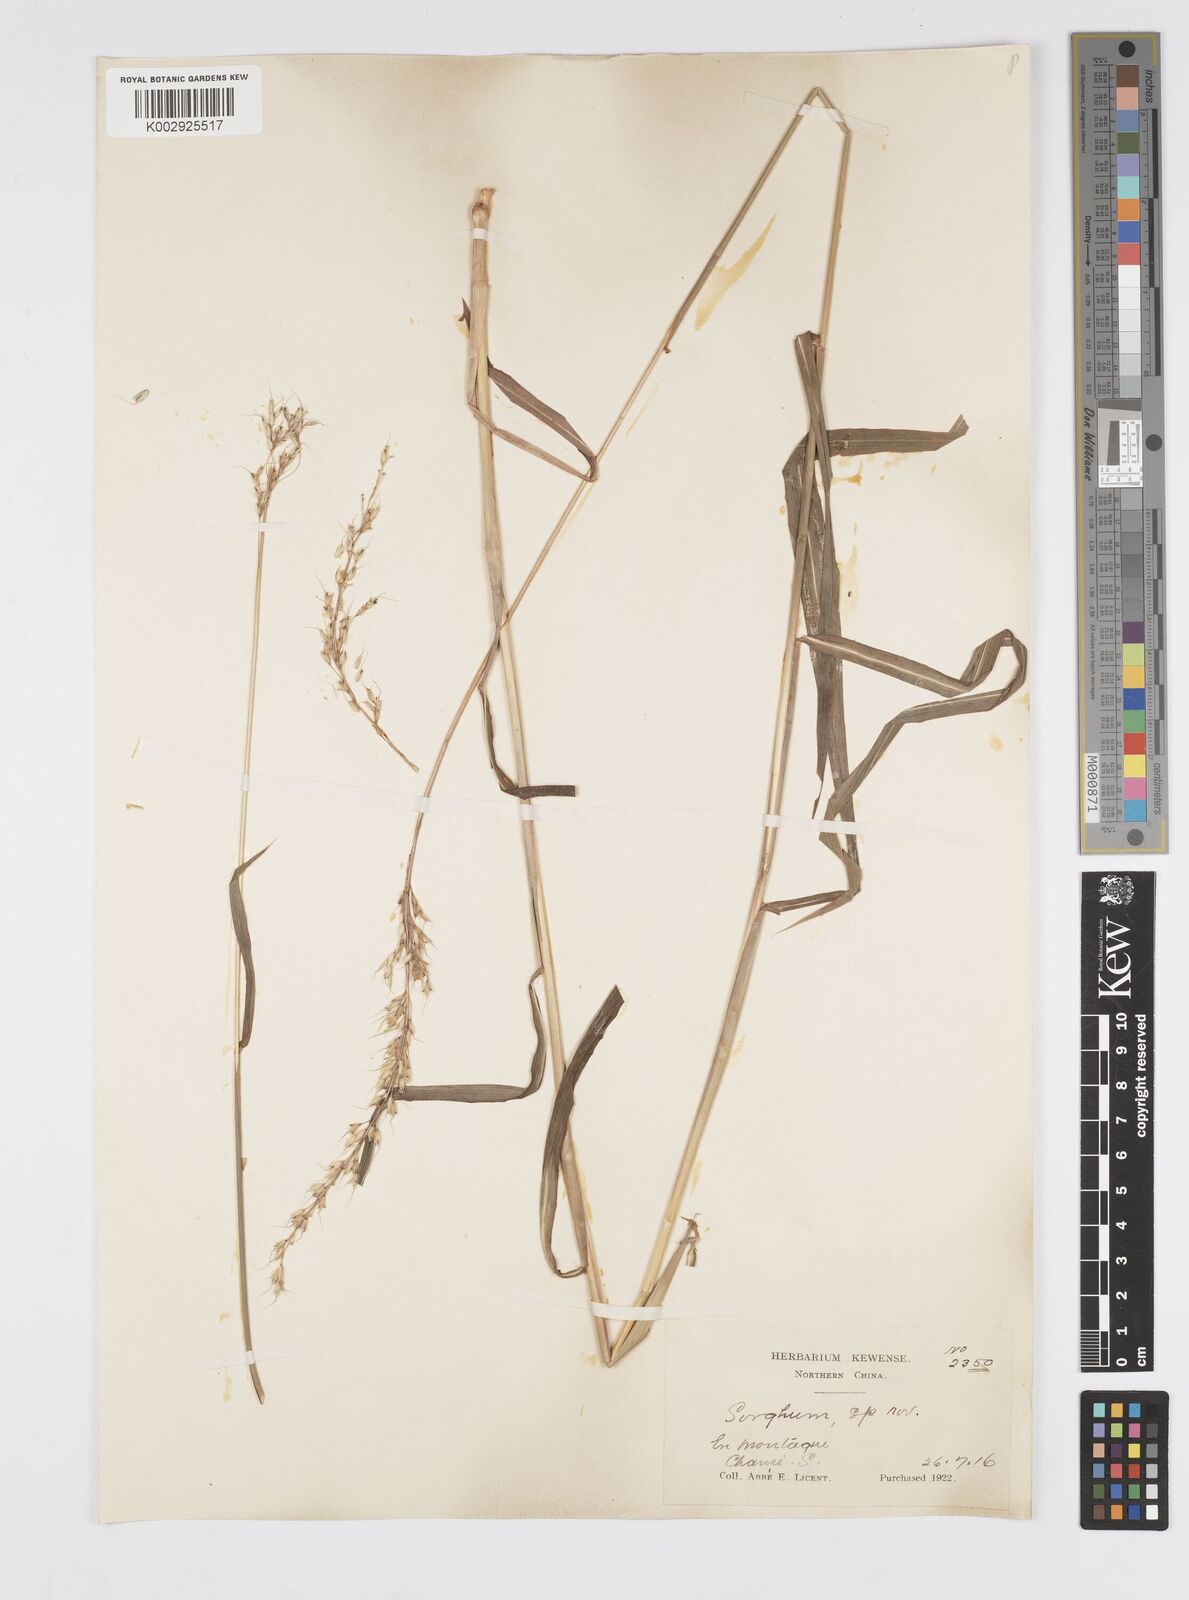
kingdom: Plantae
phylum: Tracheophyta
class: Liliopsida
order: Poales
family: Poaceae
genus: Spodiopogon
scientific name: Spodiopogon sibiricus
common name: Siberian graybeard
